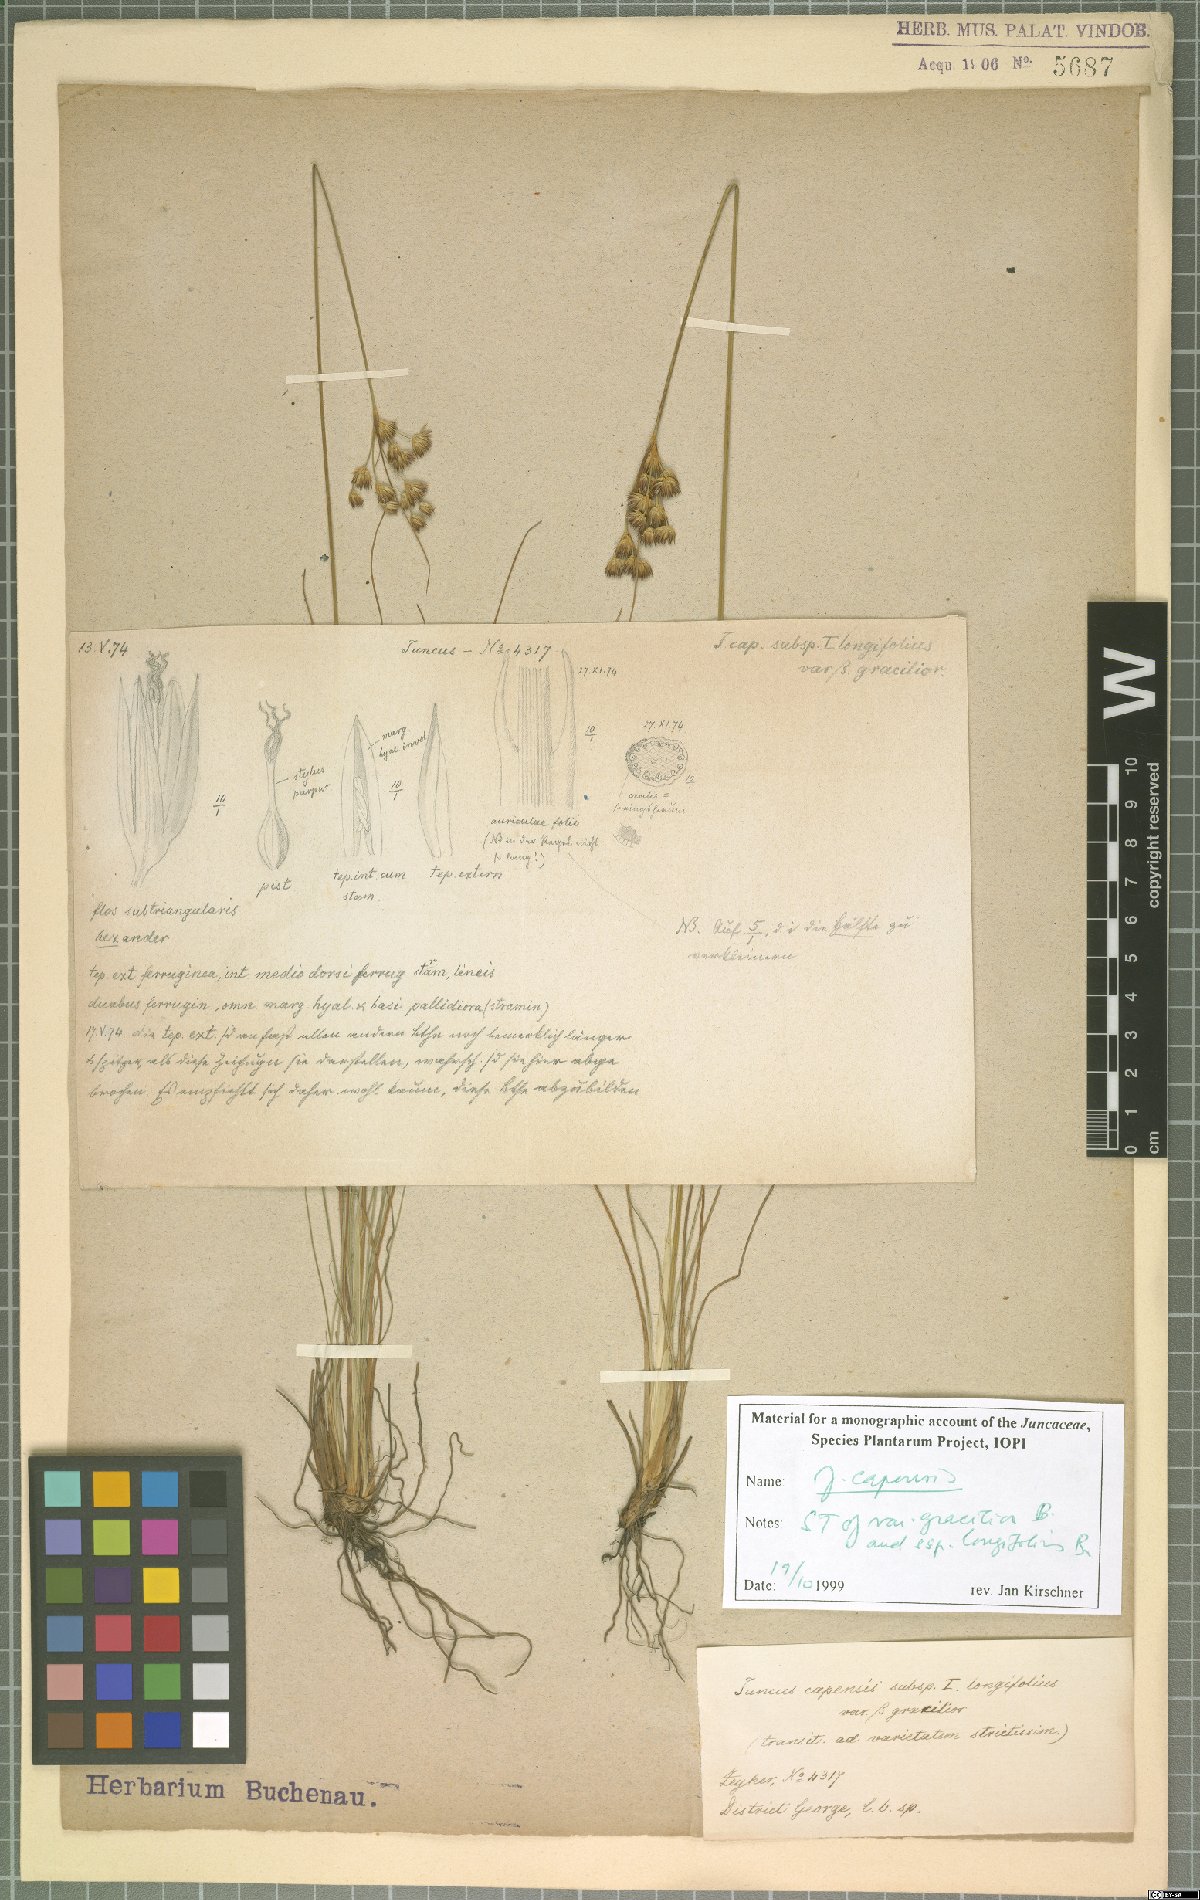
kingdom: Plantae
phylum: Tracheophyta
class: Liliopsida
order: Poales
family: Juncaceae
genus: Juncus
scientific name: Juncus capensis
